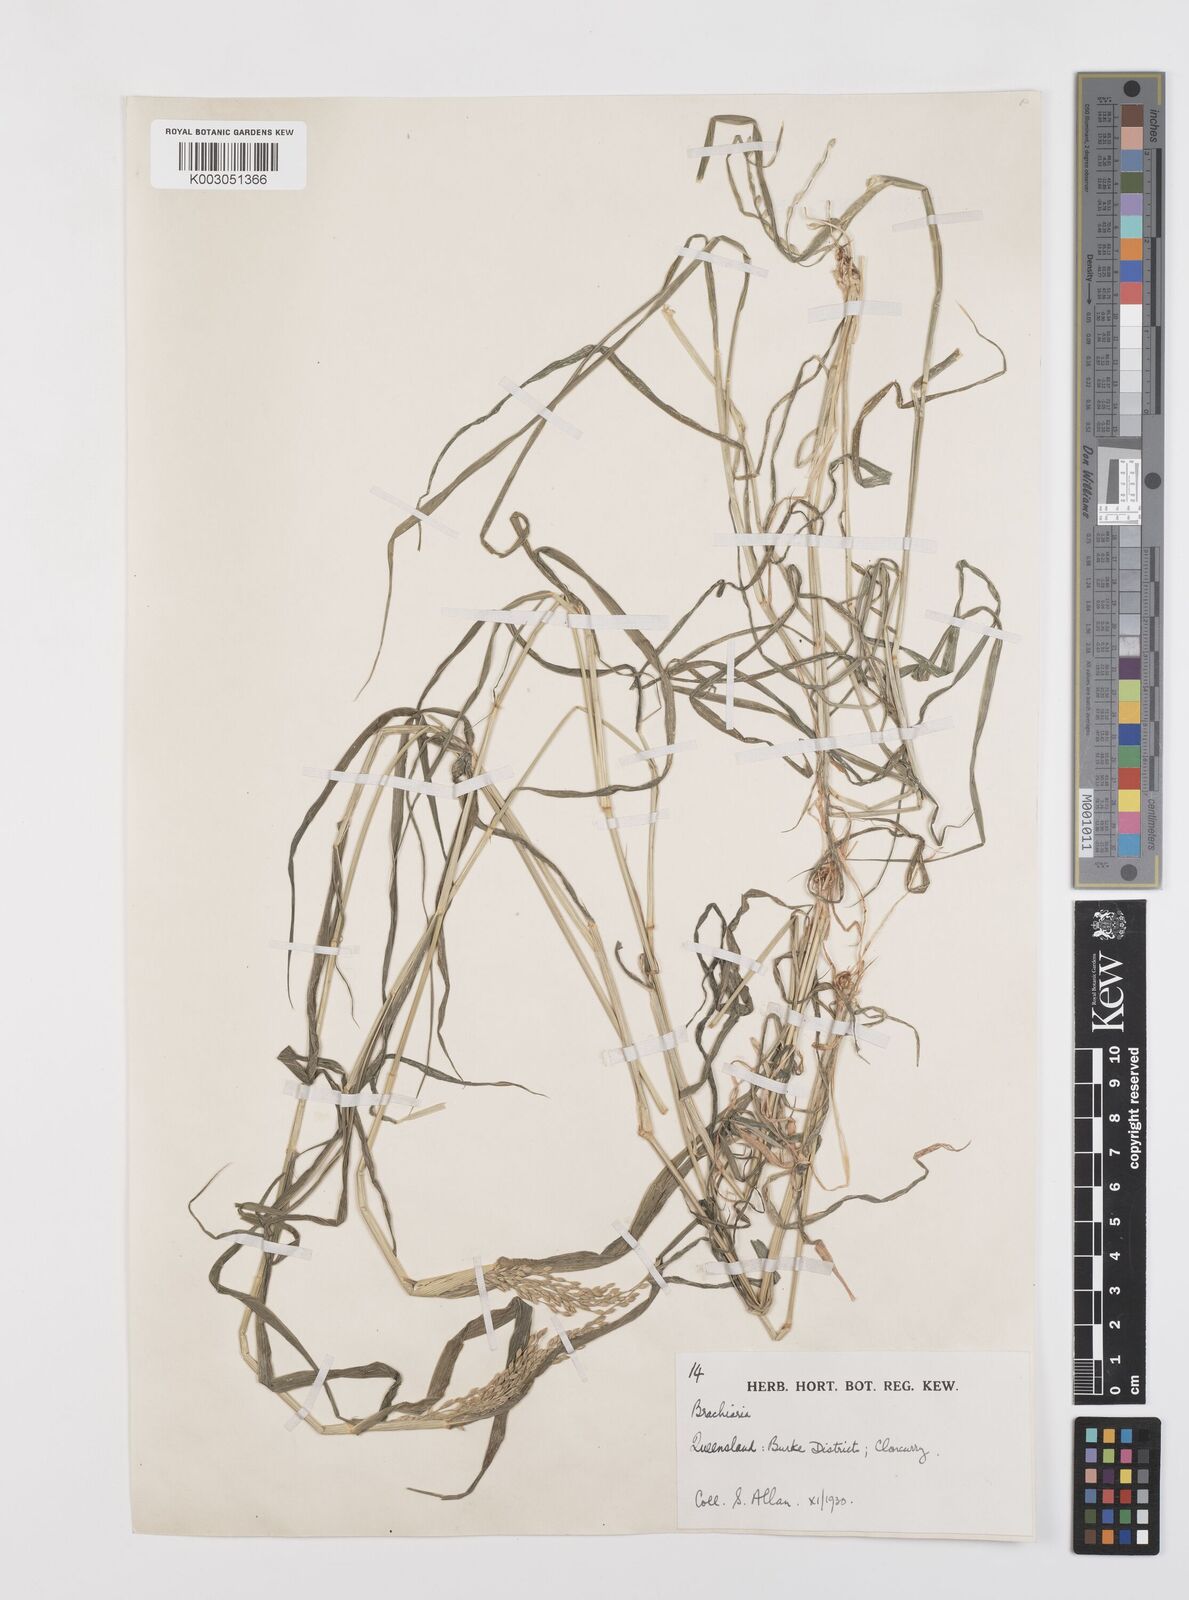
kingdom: Plantae
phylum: Tracheophyta
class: Liliopsida
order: Poales
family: Poaceae
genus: Urochloa
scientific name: Urochloa whiteana
